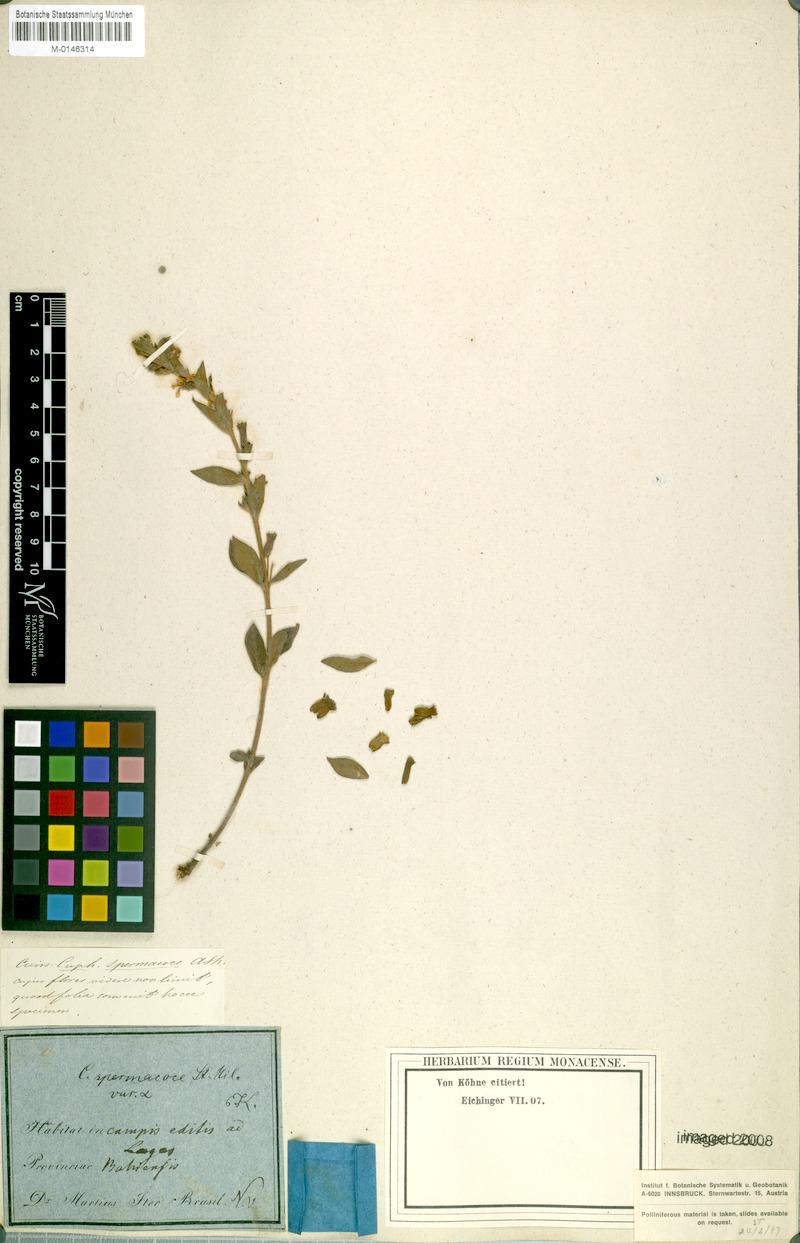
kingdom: Plantae
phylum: Tracheophyta
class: Magnoliopsida
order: Myrtales
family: Lythraceae
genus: Cuphea
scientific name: Cuphea spermacoce
